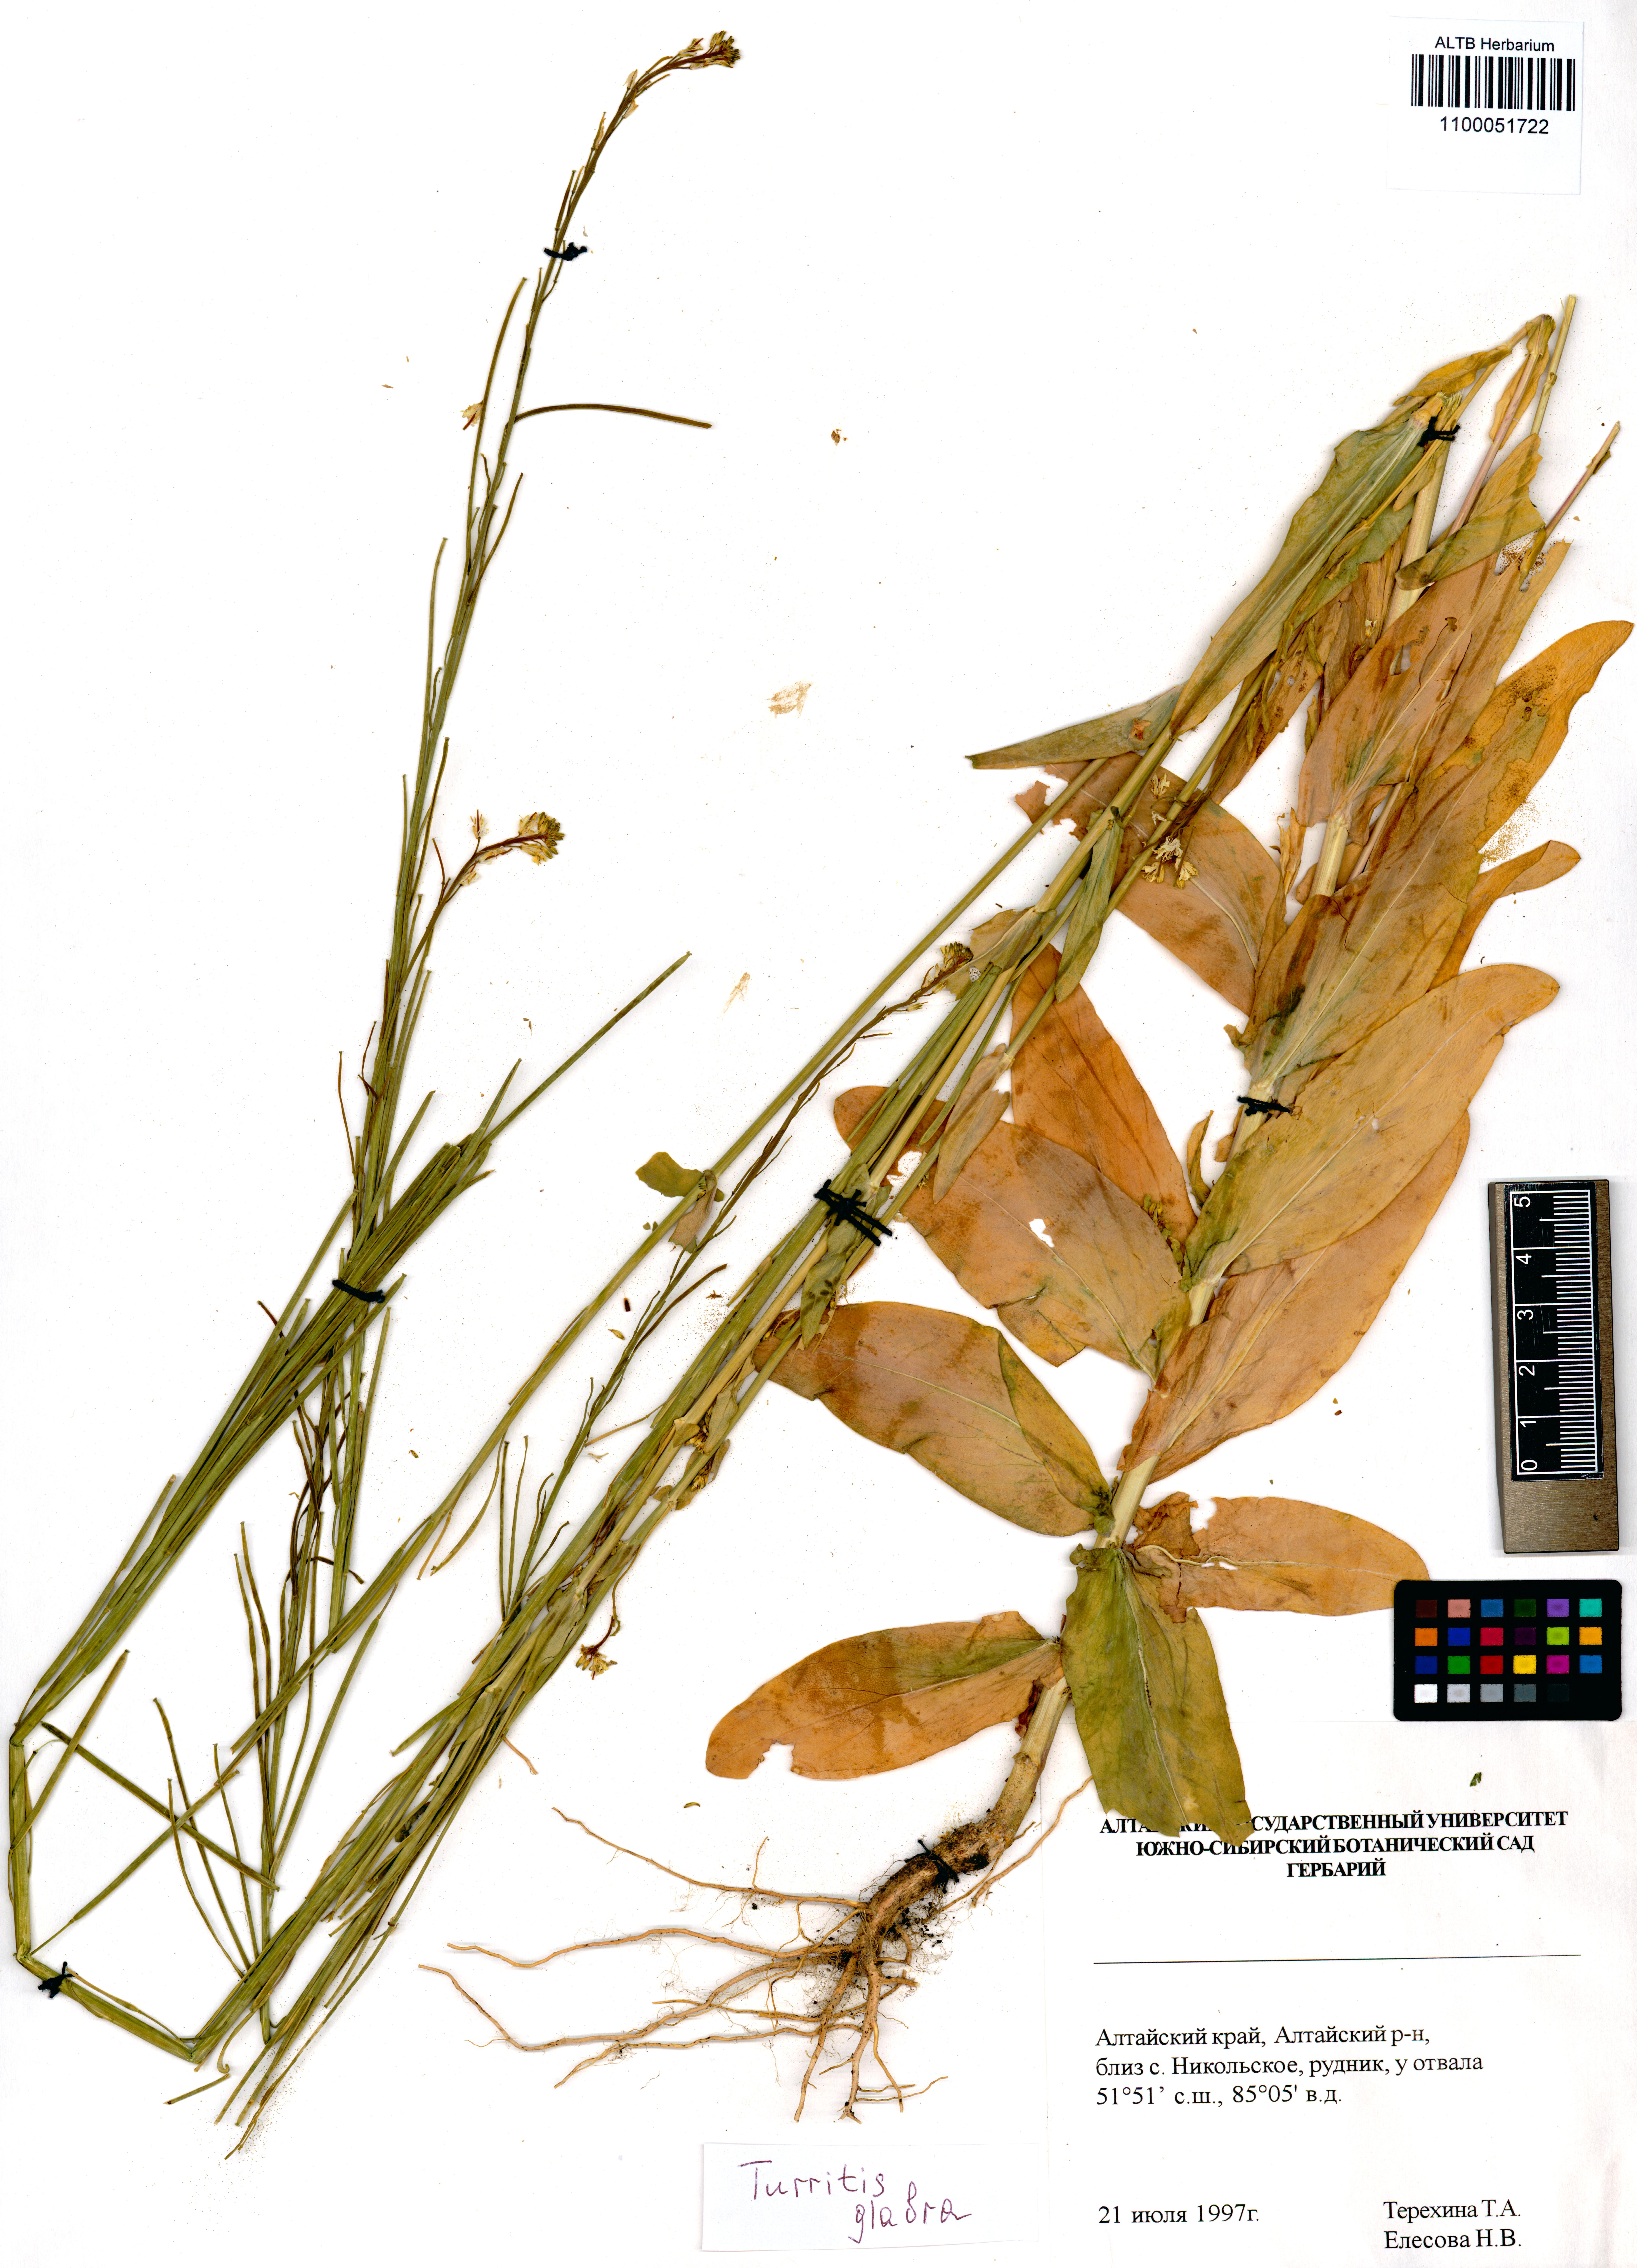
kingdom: Plantae
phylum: Tracheophyta
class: Magnoliopsida
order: Brassicales
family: Brassicaceae
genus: Turritis
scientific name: Turritis glabra
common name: Tower rockcress
